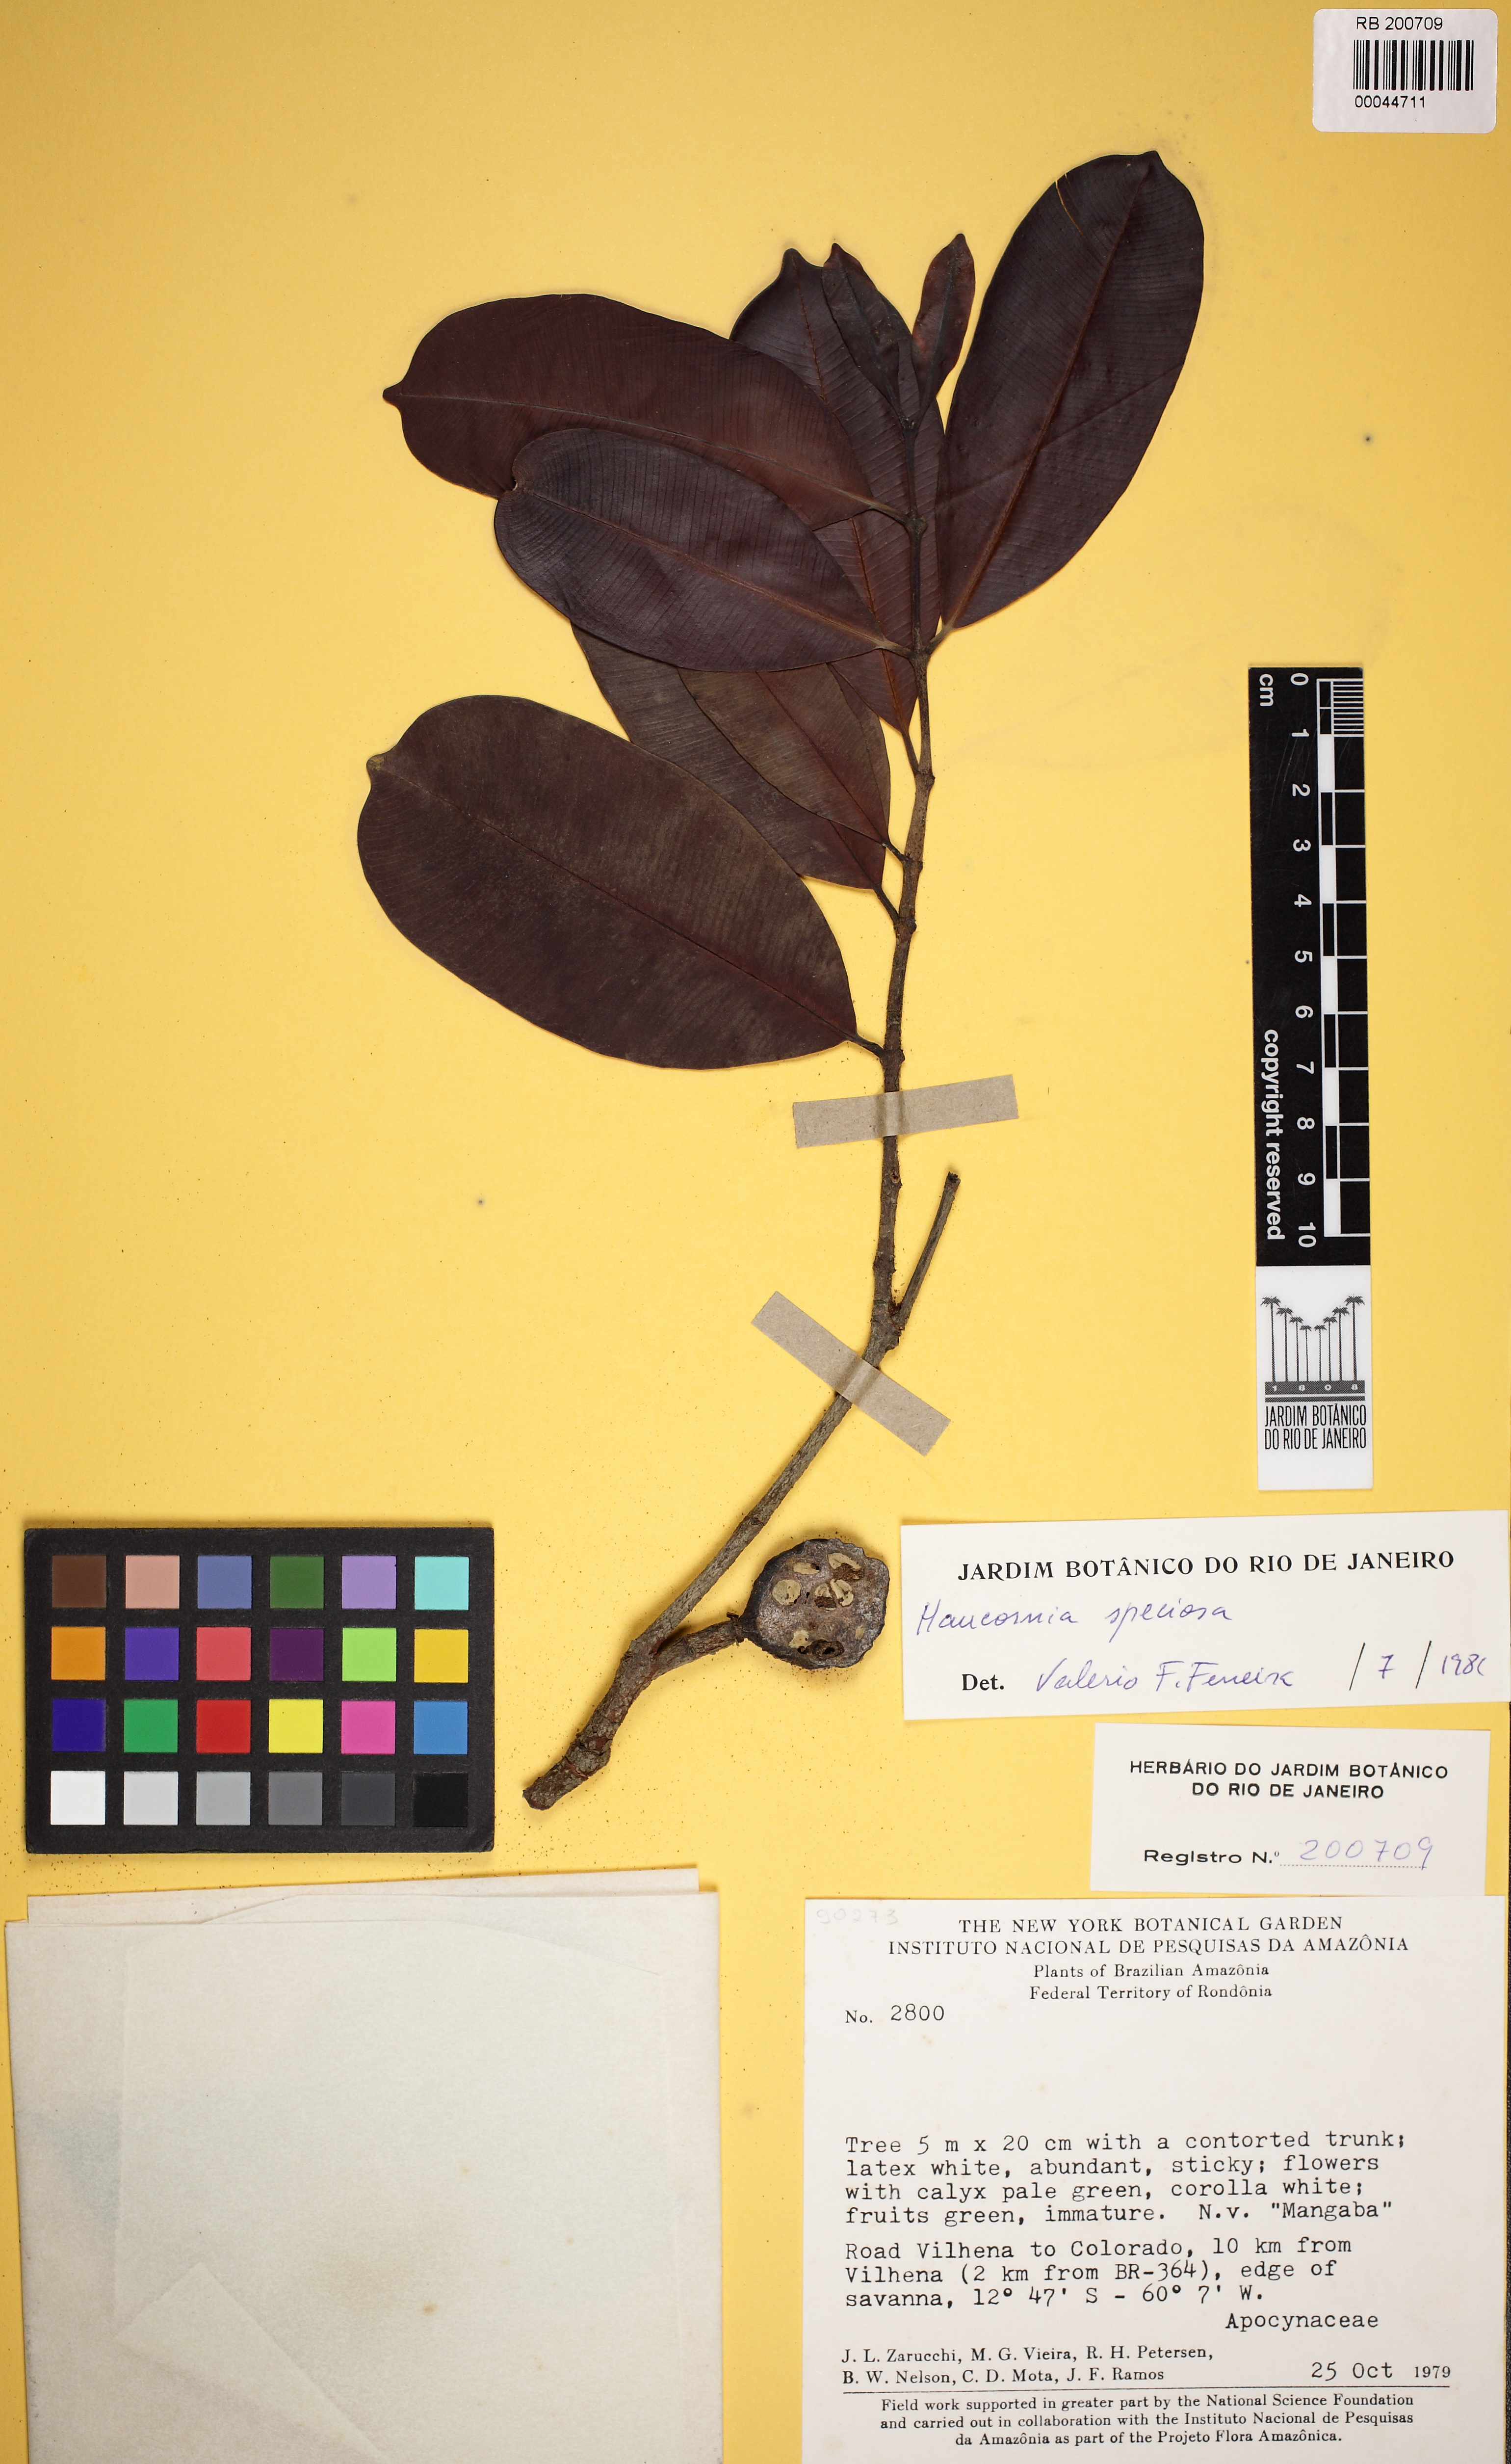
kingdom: Plantae
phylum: Tracheophyta
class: Magnoliopsida
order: Gentianales
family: Apocynaceae
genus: Hancornia
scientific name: Hancornia speciosa
